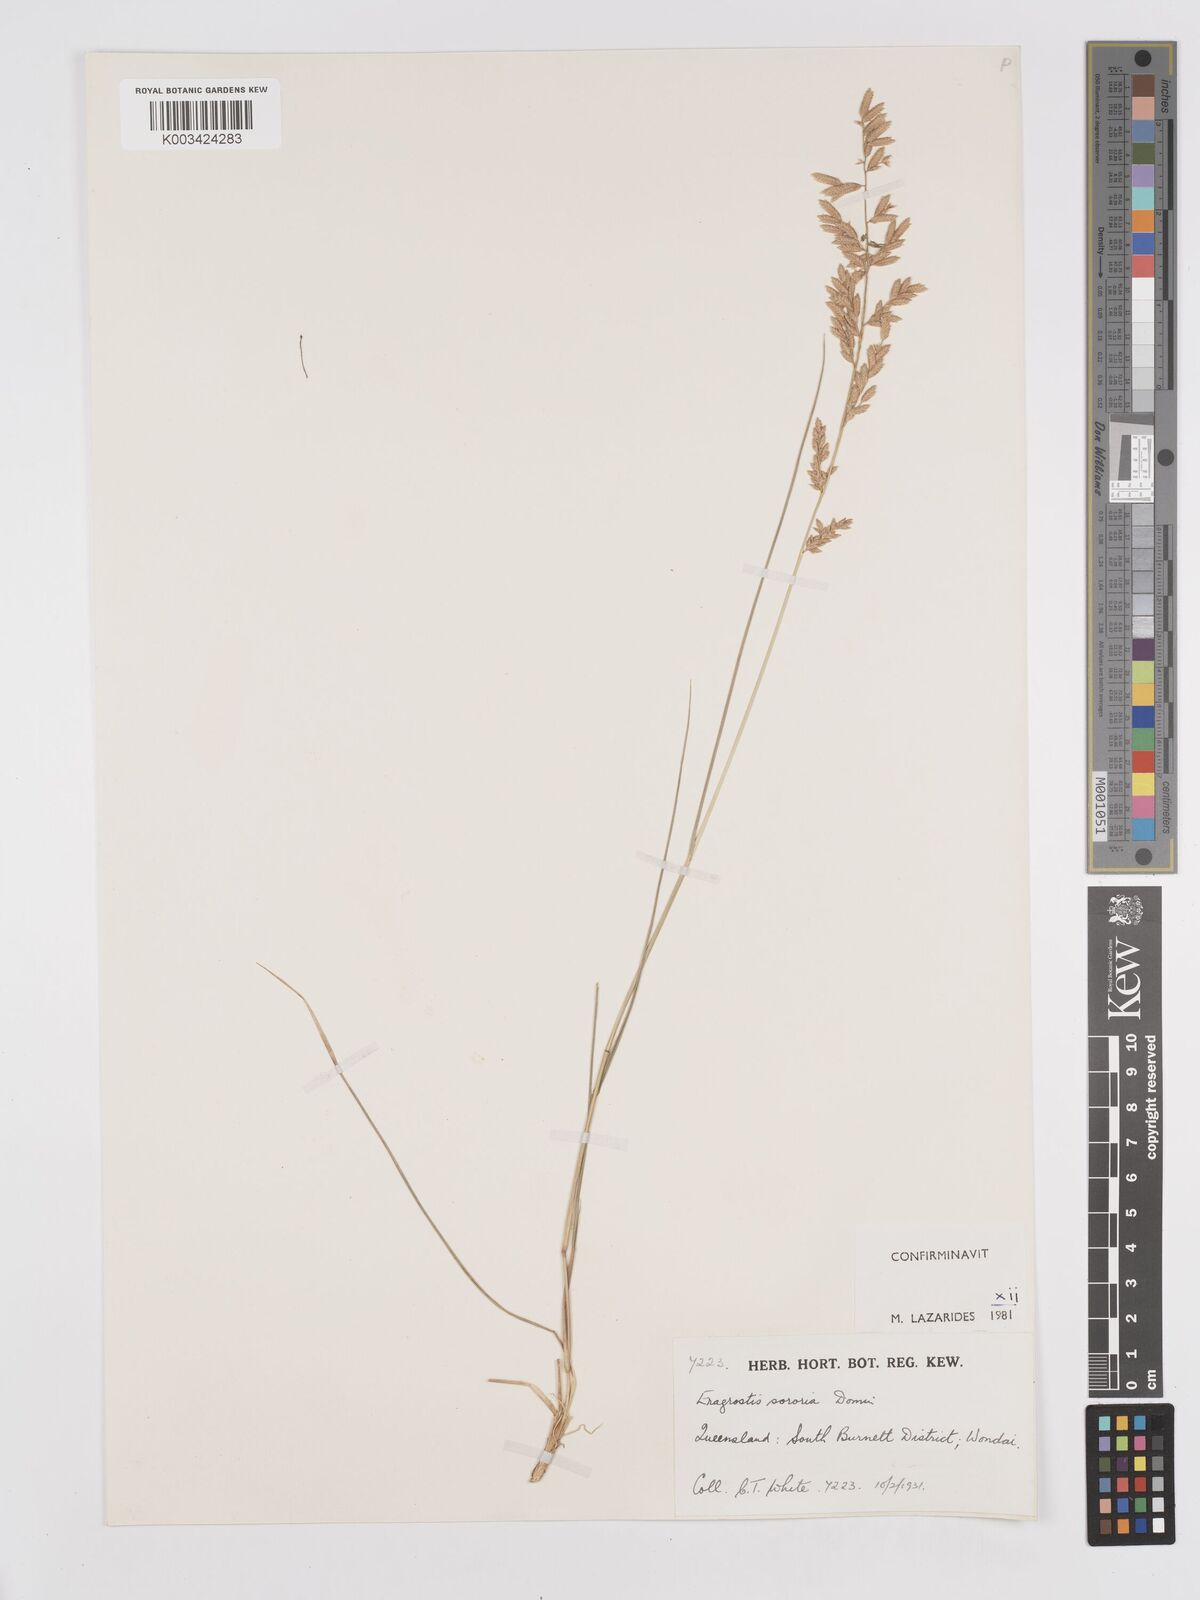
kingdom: Plantae
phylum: Tracheophyta
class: Liliopsida
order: Poales
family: Poaceae
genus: Eragrostis
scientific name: Eragrostis sororia
